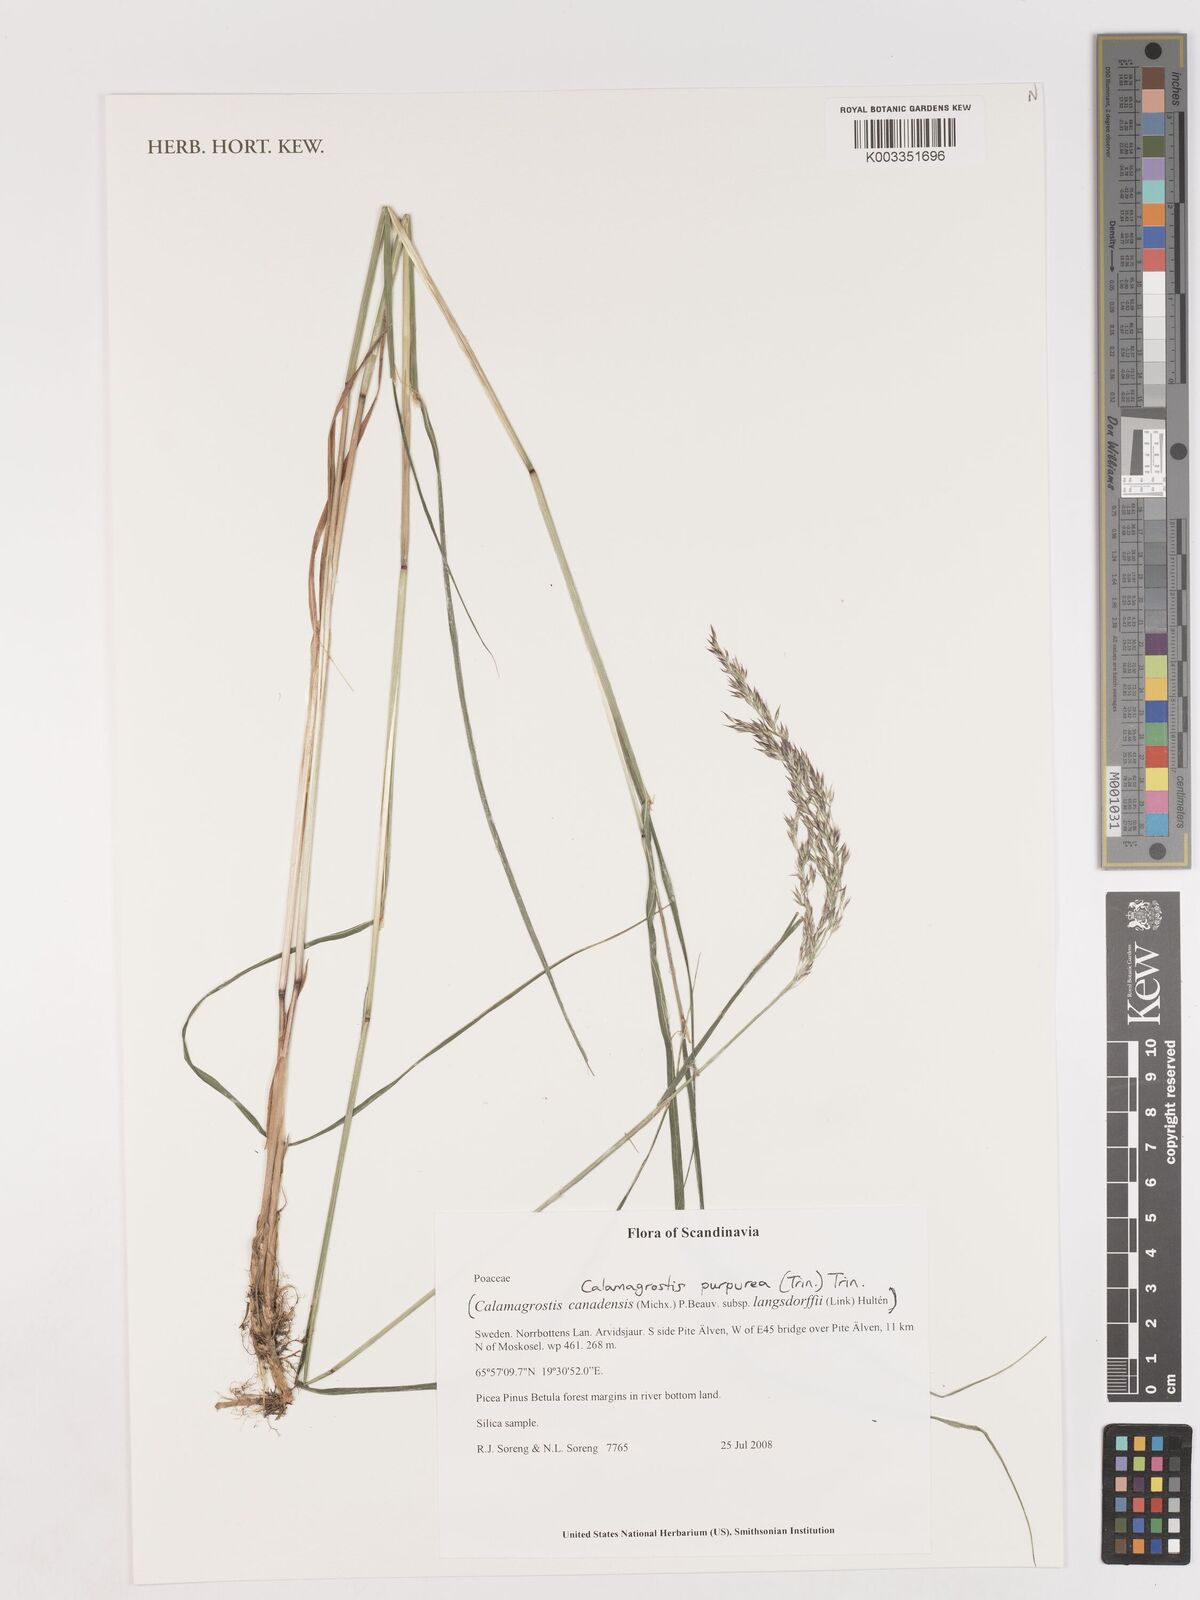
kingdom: Plantae
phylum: Tracheophyta
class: Liliopsida
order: Poales
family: Poaceae
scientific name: Poaceae
